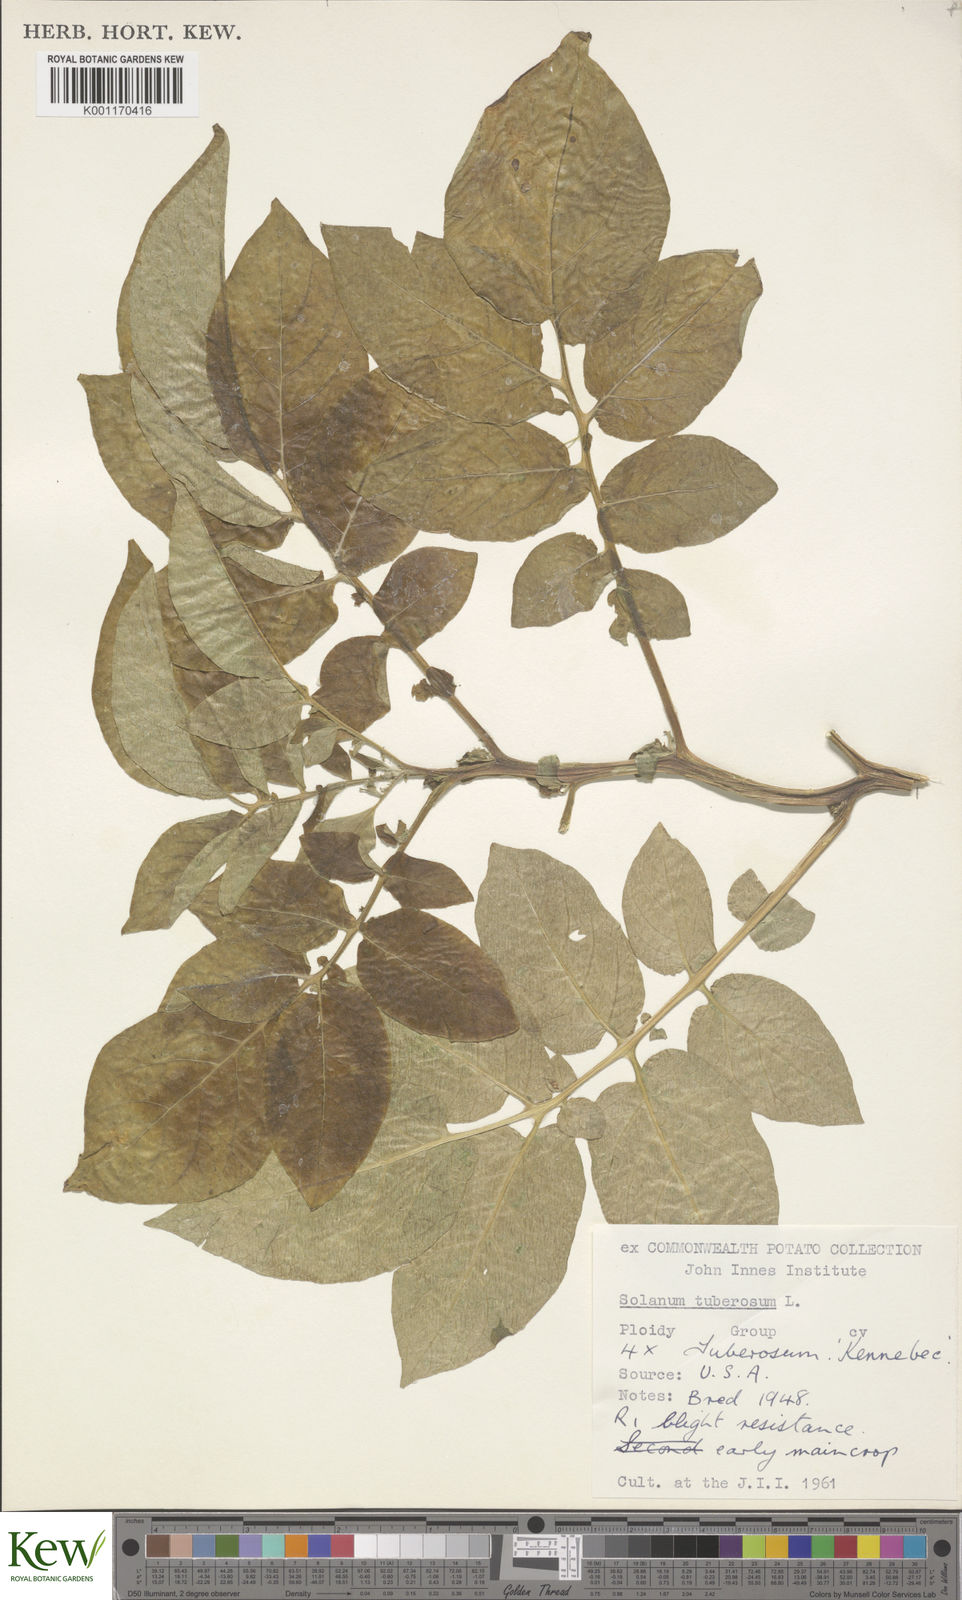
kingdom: Plantae
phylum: Tracheophyta
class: Magnoliopsida
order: Solanales
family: Solanaceae
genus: Solanum
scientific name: Solanum tuberosum
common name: Potato
